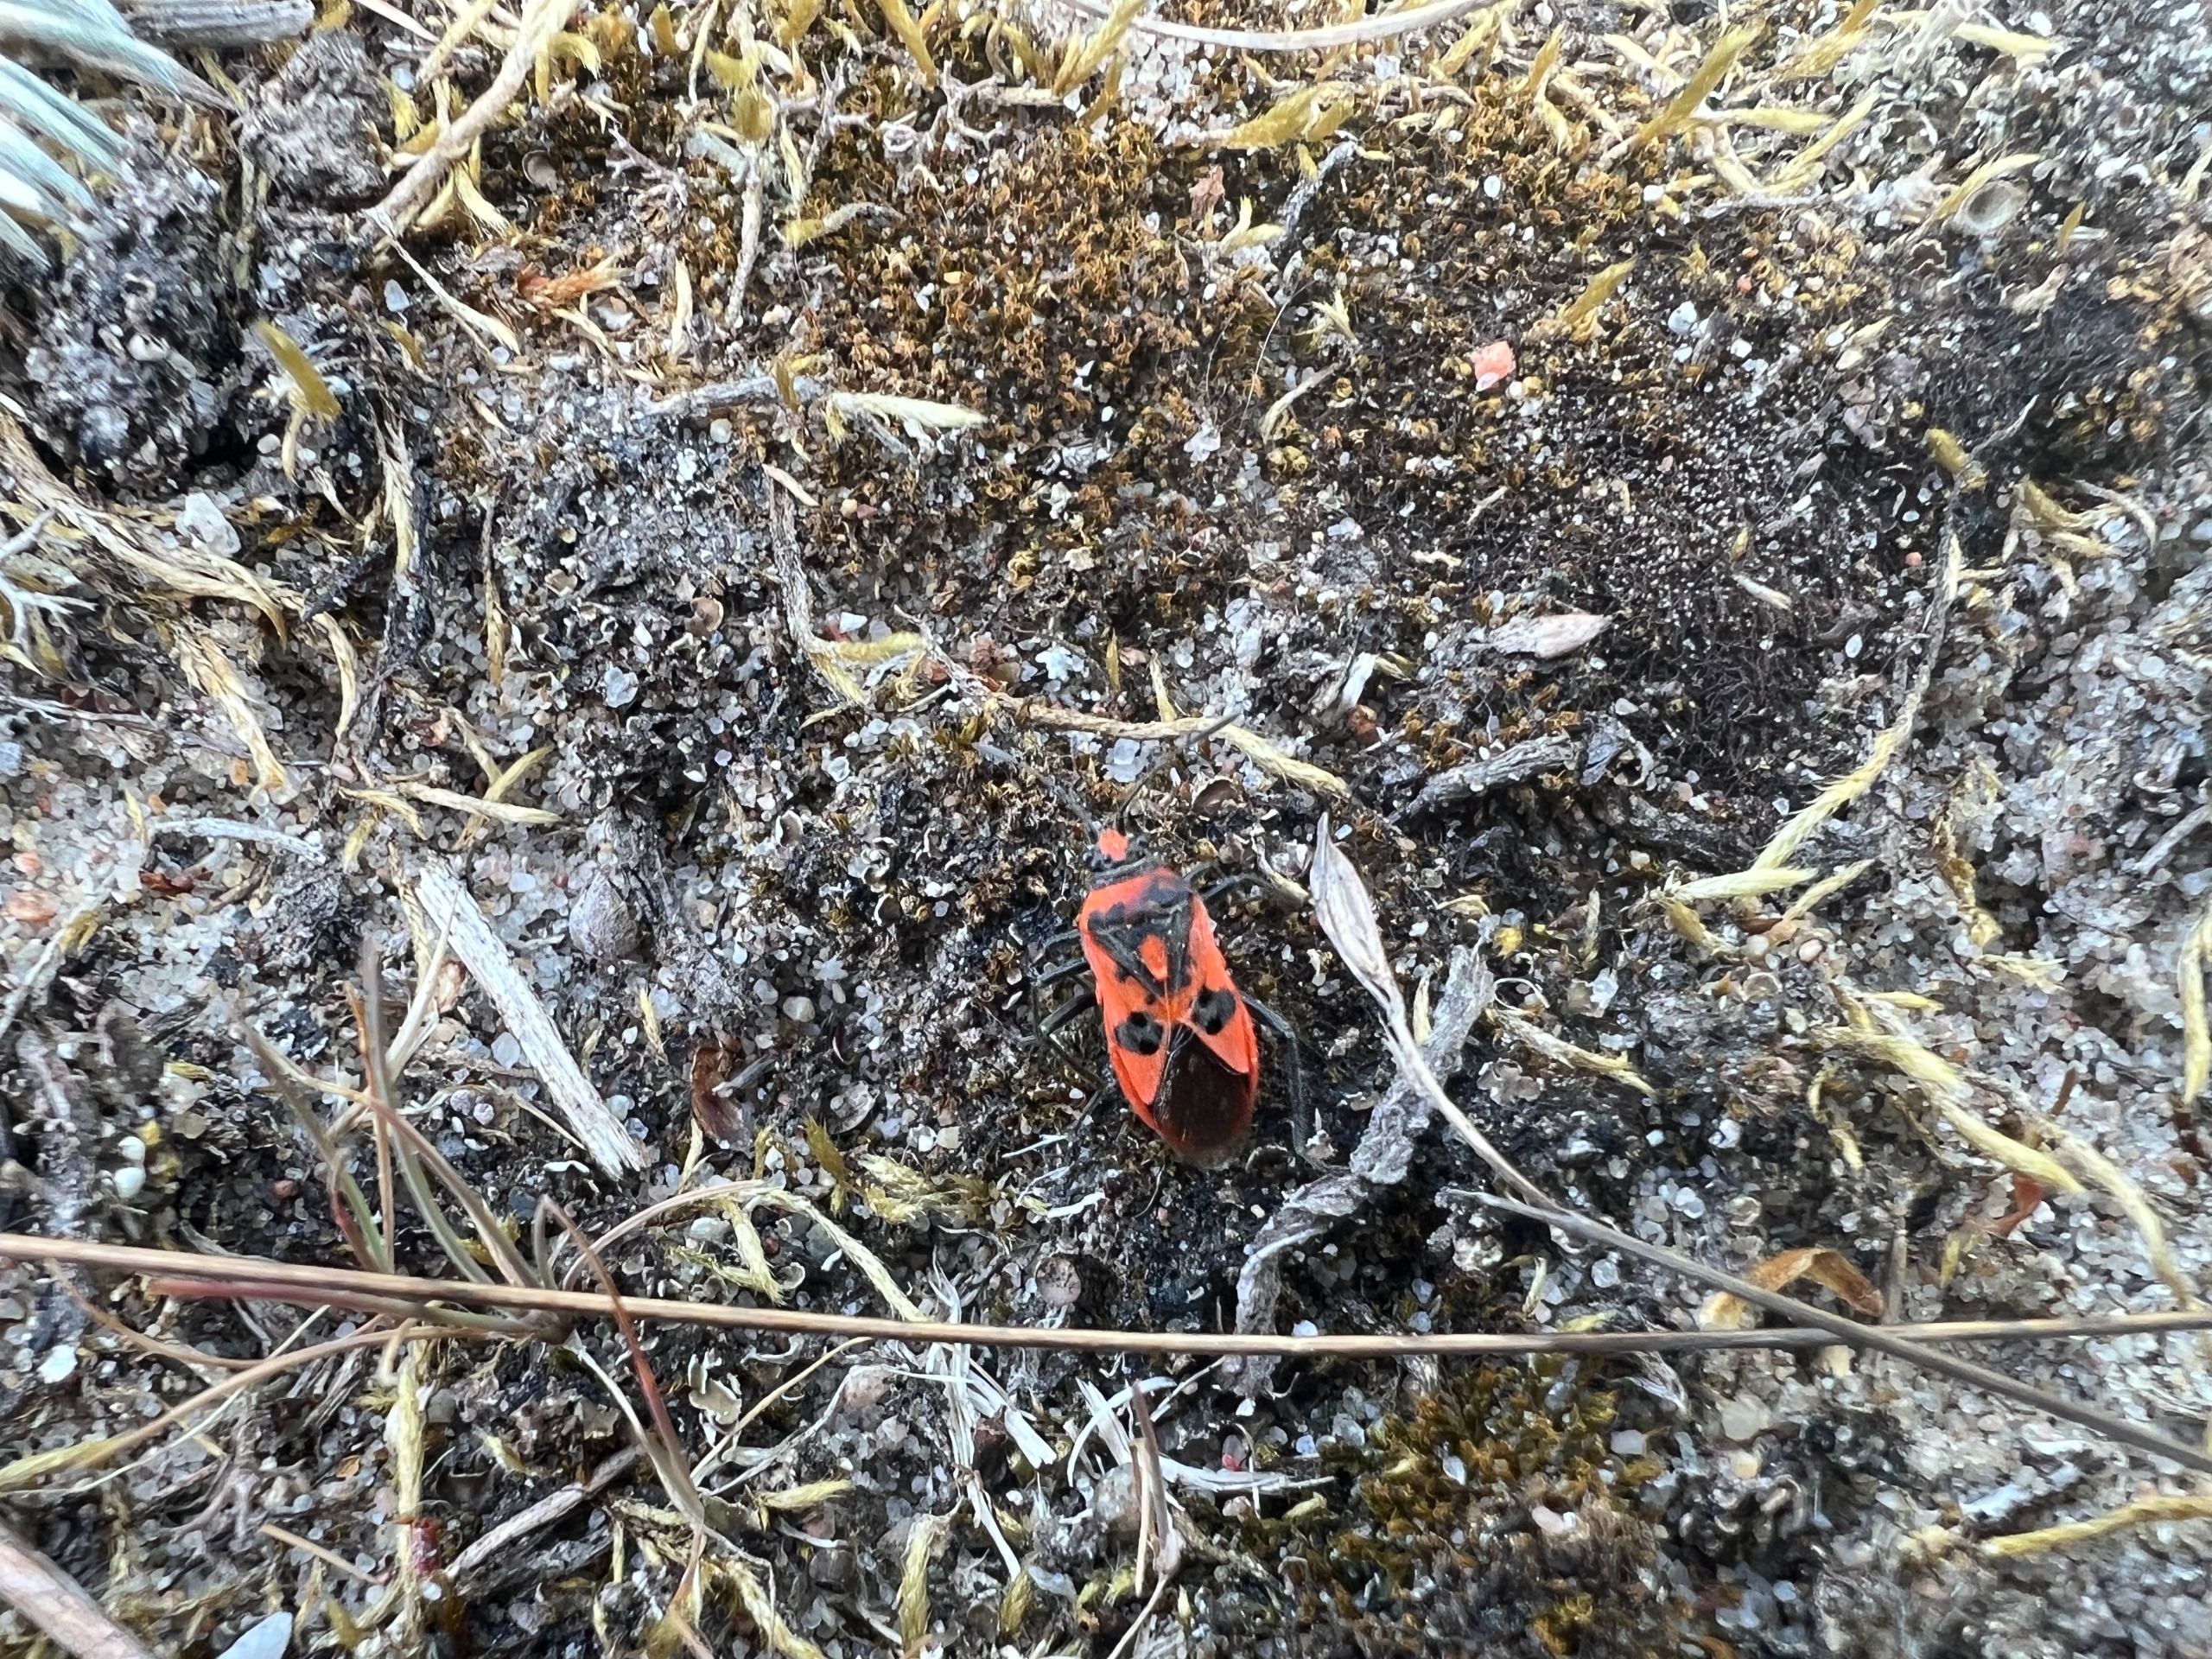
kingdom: Animalia
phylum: Arthropoda
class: Insecta
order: Hemiptera
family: Rhopalidae
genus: Corizus
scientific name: Corizus hyoscyami
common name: Rød kanttæge
